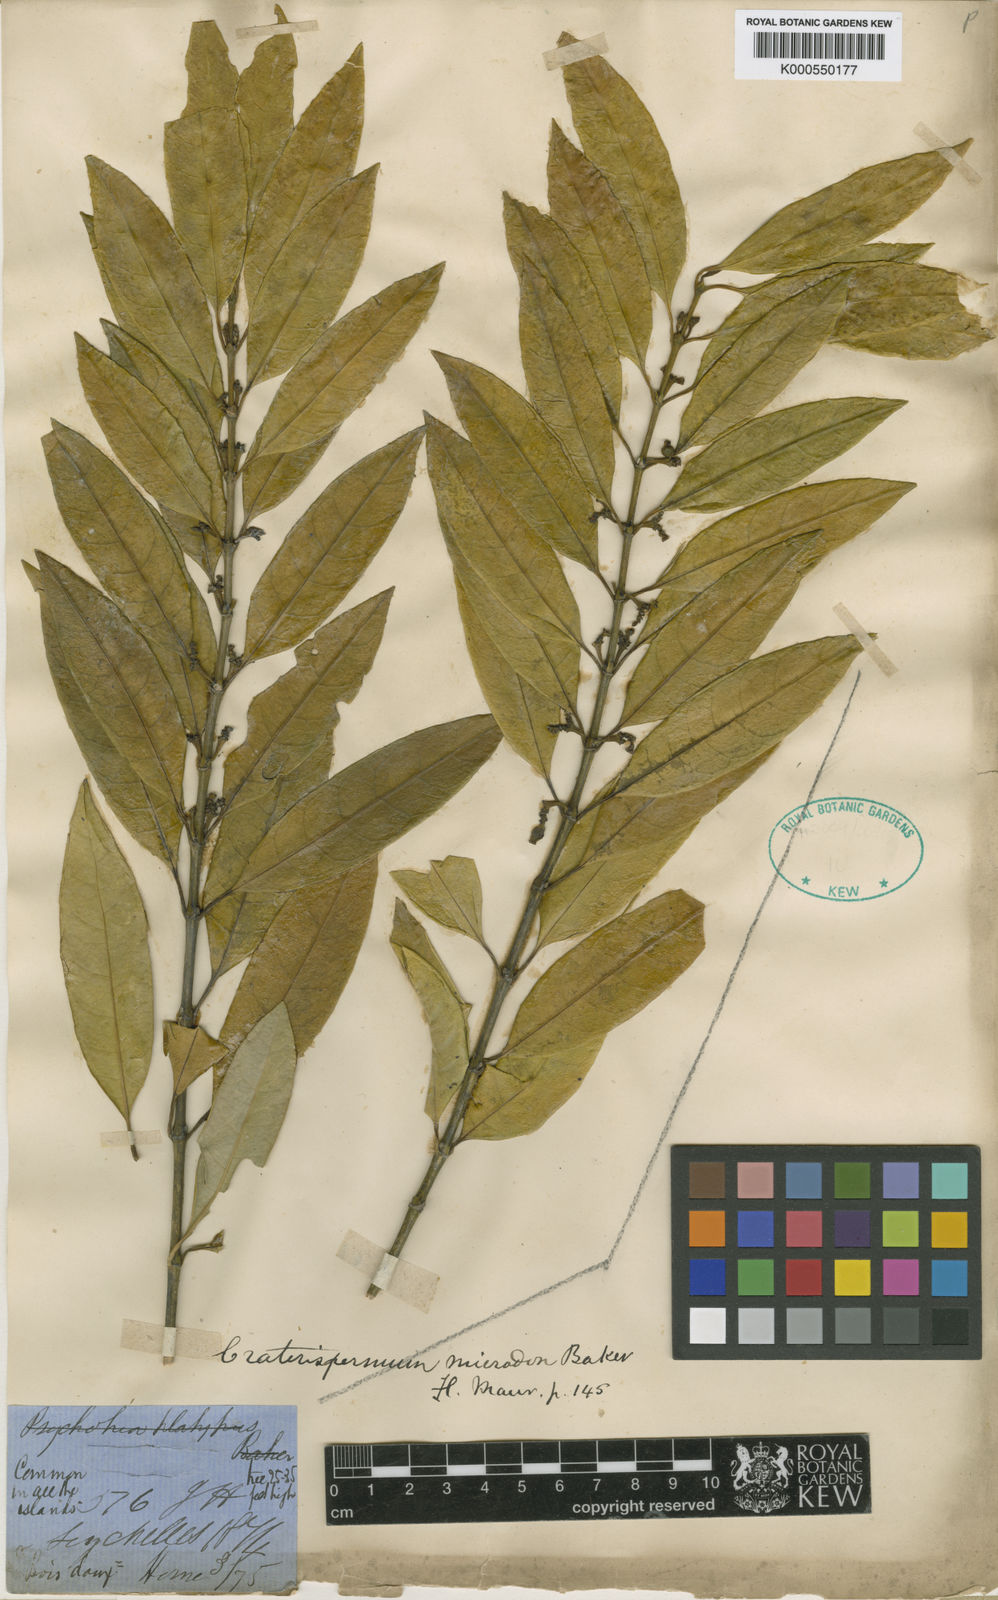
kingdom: Plantae
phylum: Tracheophyta
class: Magnoliopsida
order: Gentianales
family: Rubiaceae
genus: Craterispermum
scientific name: Craterispermum microdon
